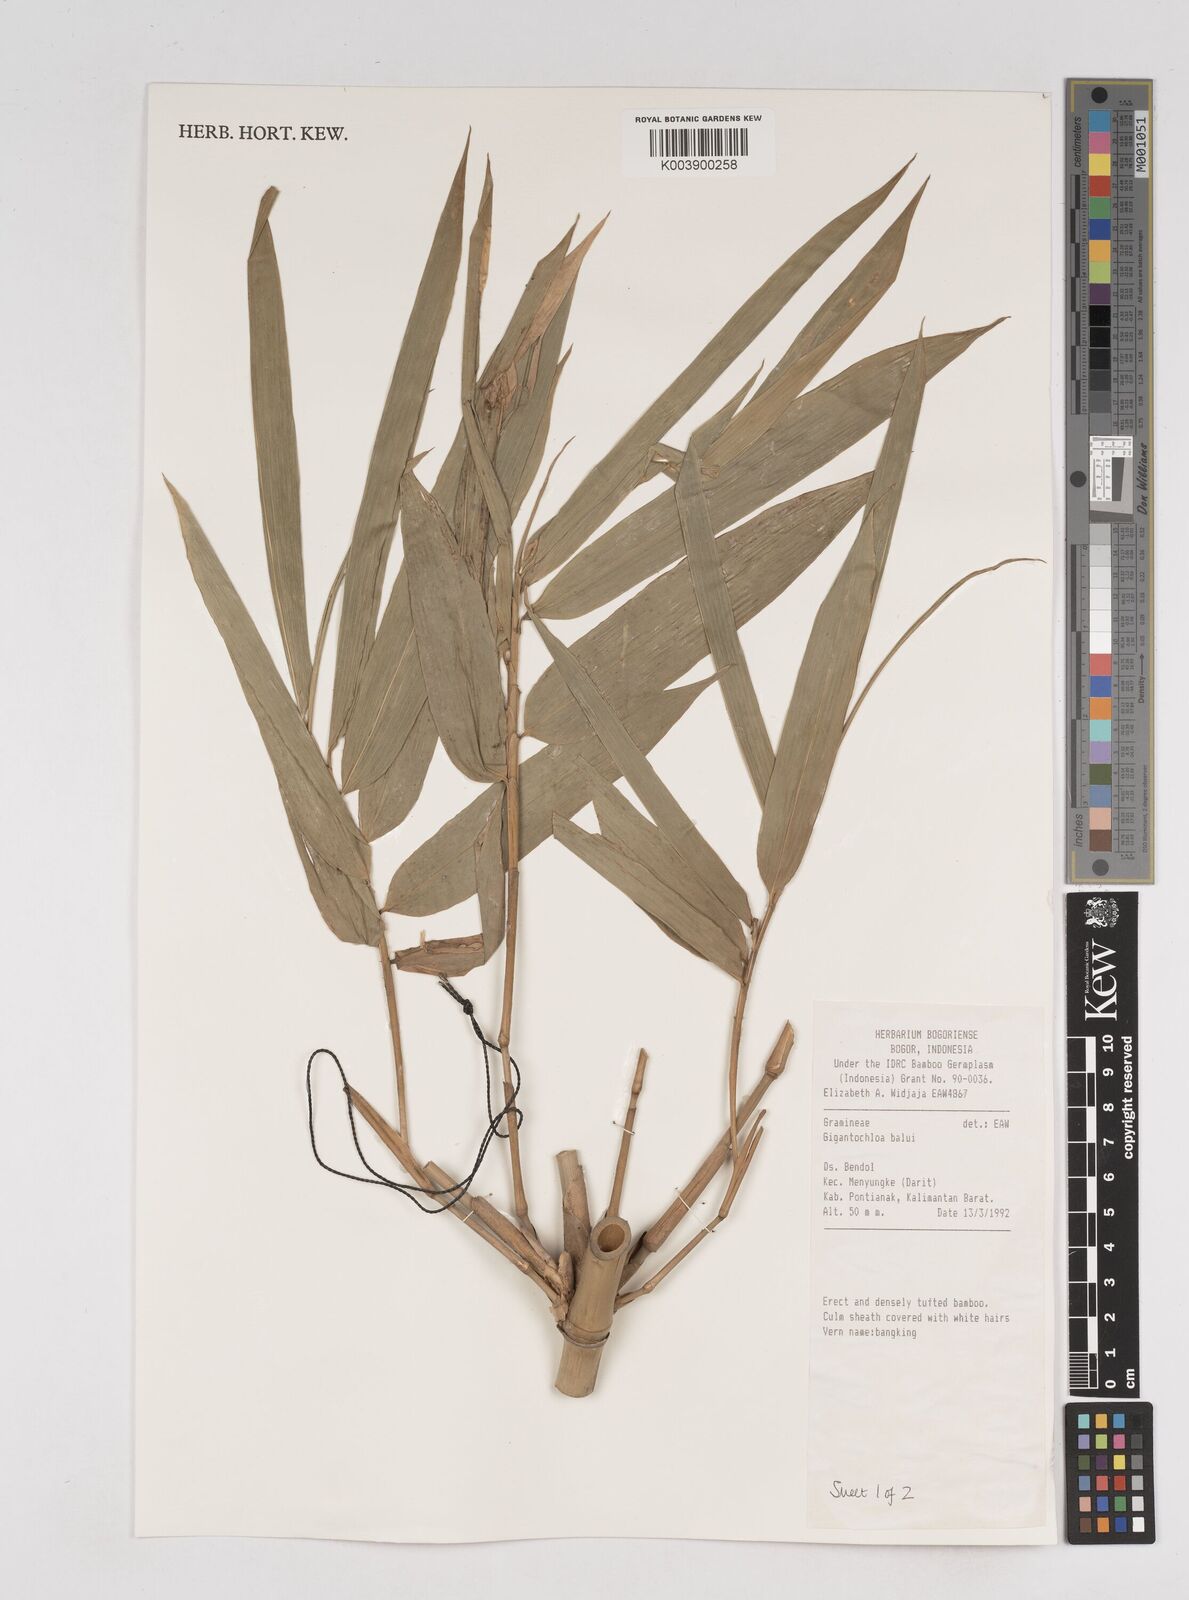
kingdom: Plantae
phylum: Tracheophyta
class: Liliopsida
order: Poales
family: Poaceae
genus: Gigantochloa
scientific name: Gigantochloa balui
